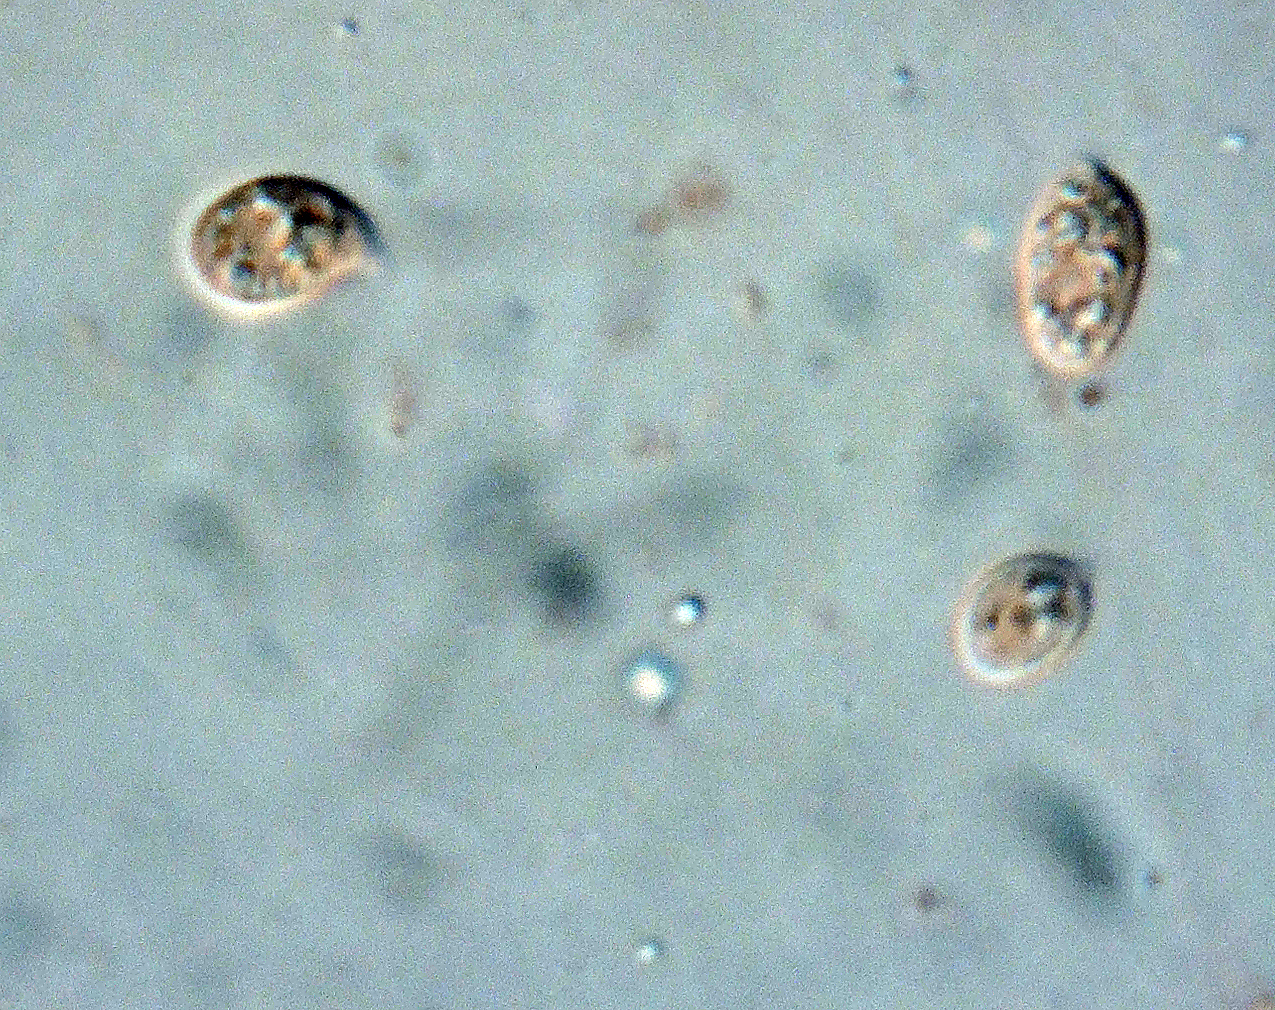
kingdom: Fungi
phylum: Basidiomycota
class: Agaricomycetes
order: Agaricales
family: Tricholomataceae
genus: Omphalina
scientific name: Omphalina pyxidata
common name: rødbrun navlehat
